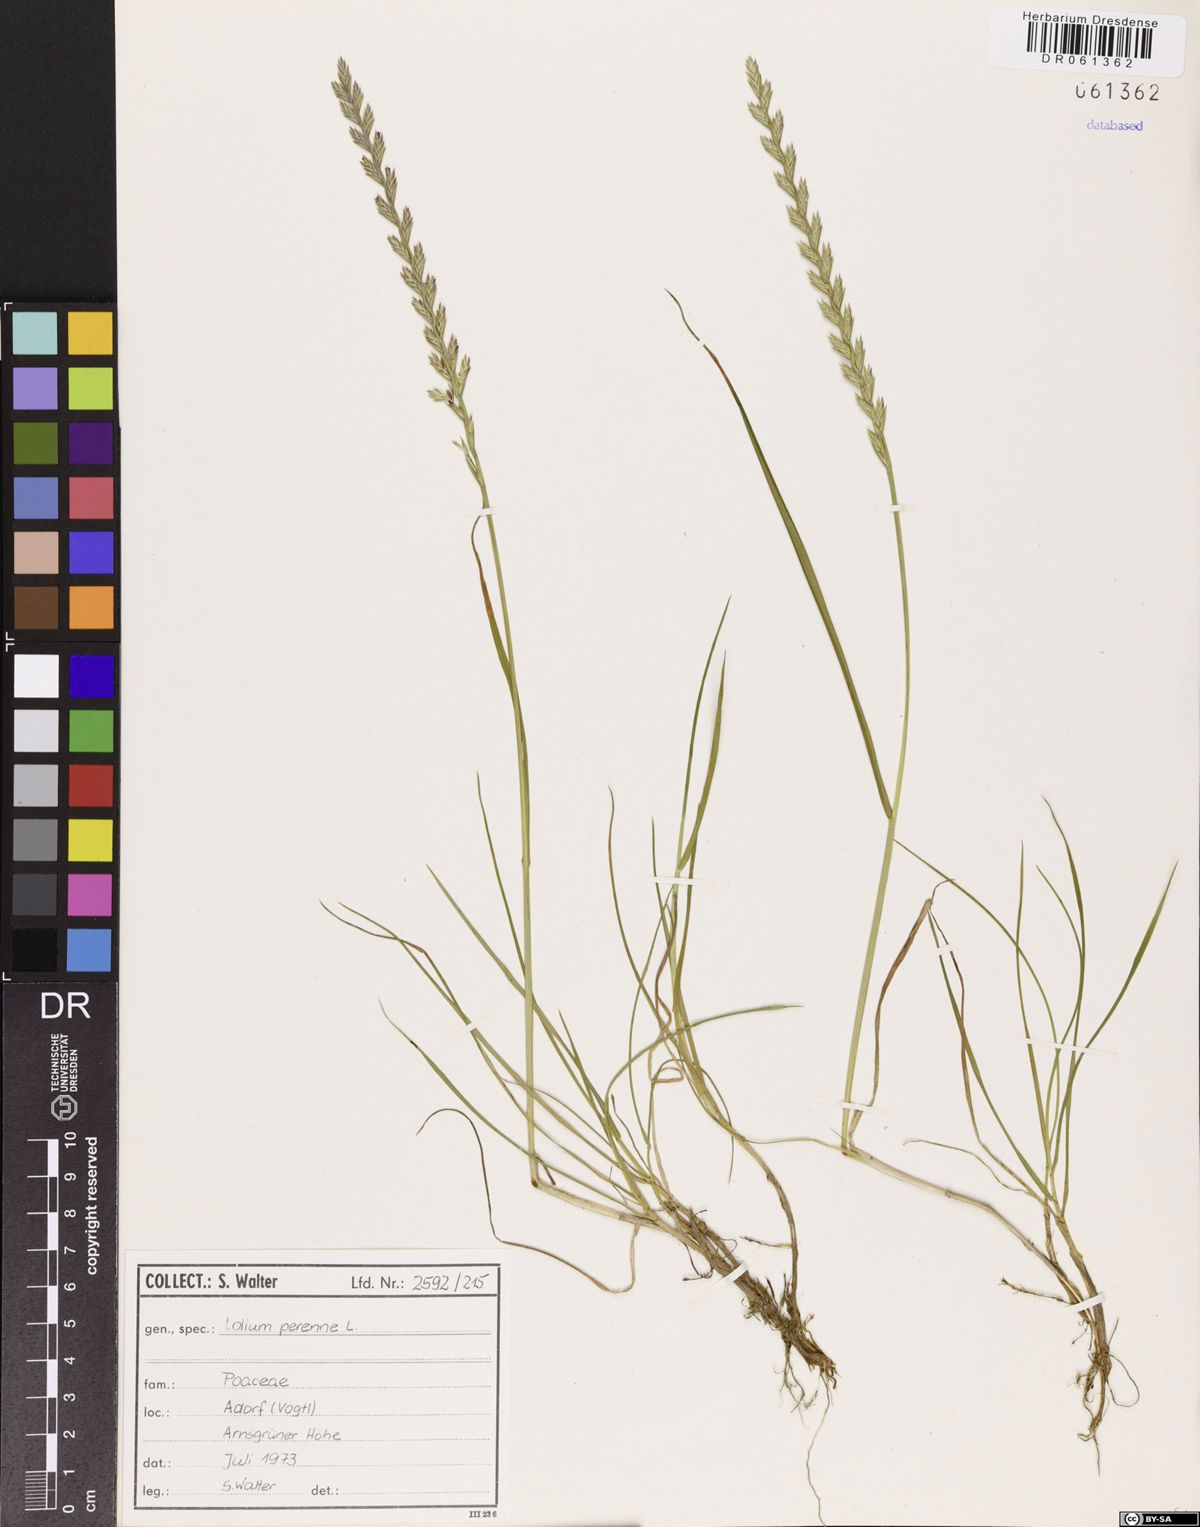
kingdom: Plantae
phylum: Tracheophyta
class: Liliopsida
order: Poales
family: Poaceae
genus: Lolium
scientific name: Lolium perenne
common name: Perennial ryegrass
